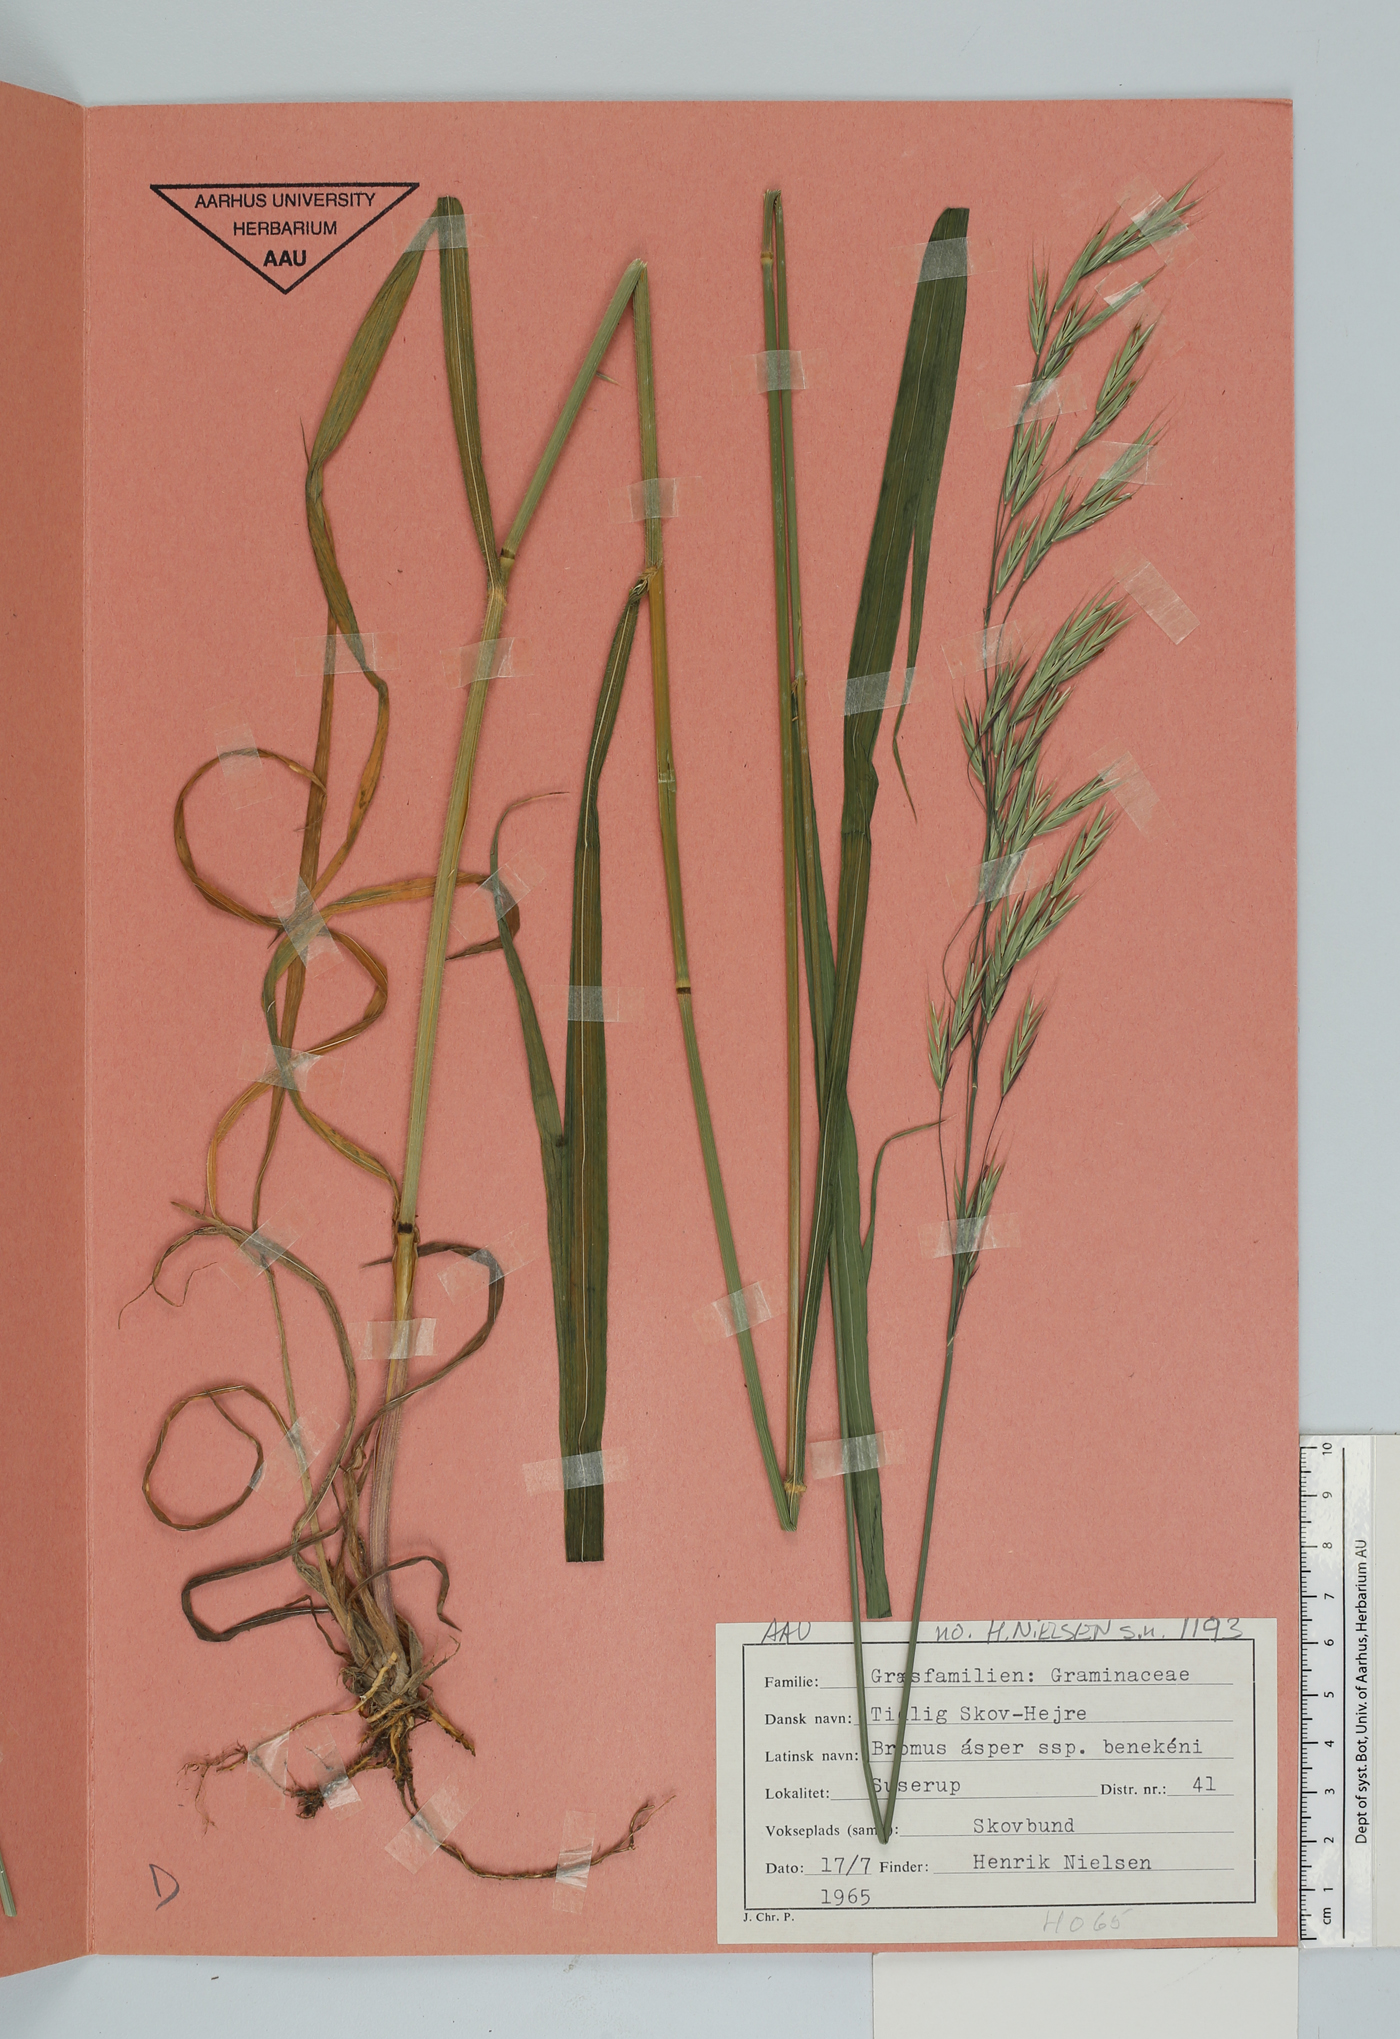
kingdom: Plantae
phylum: Tracheophyta
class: Liliopsida
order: Poales
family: Poaceae
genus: Bromus
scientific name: Bromus benekenii
